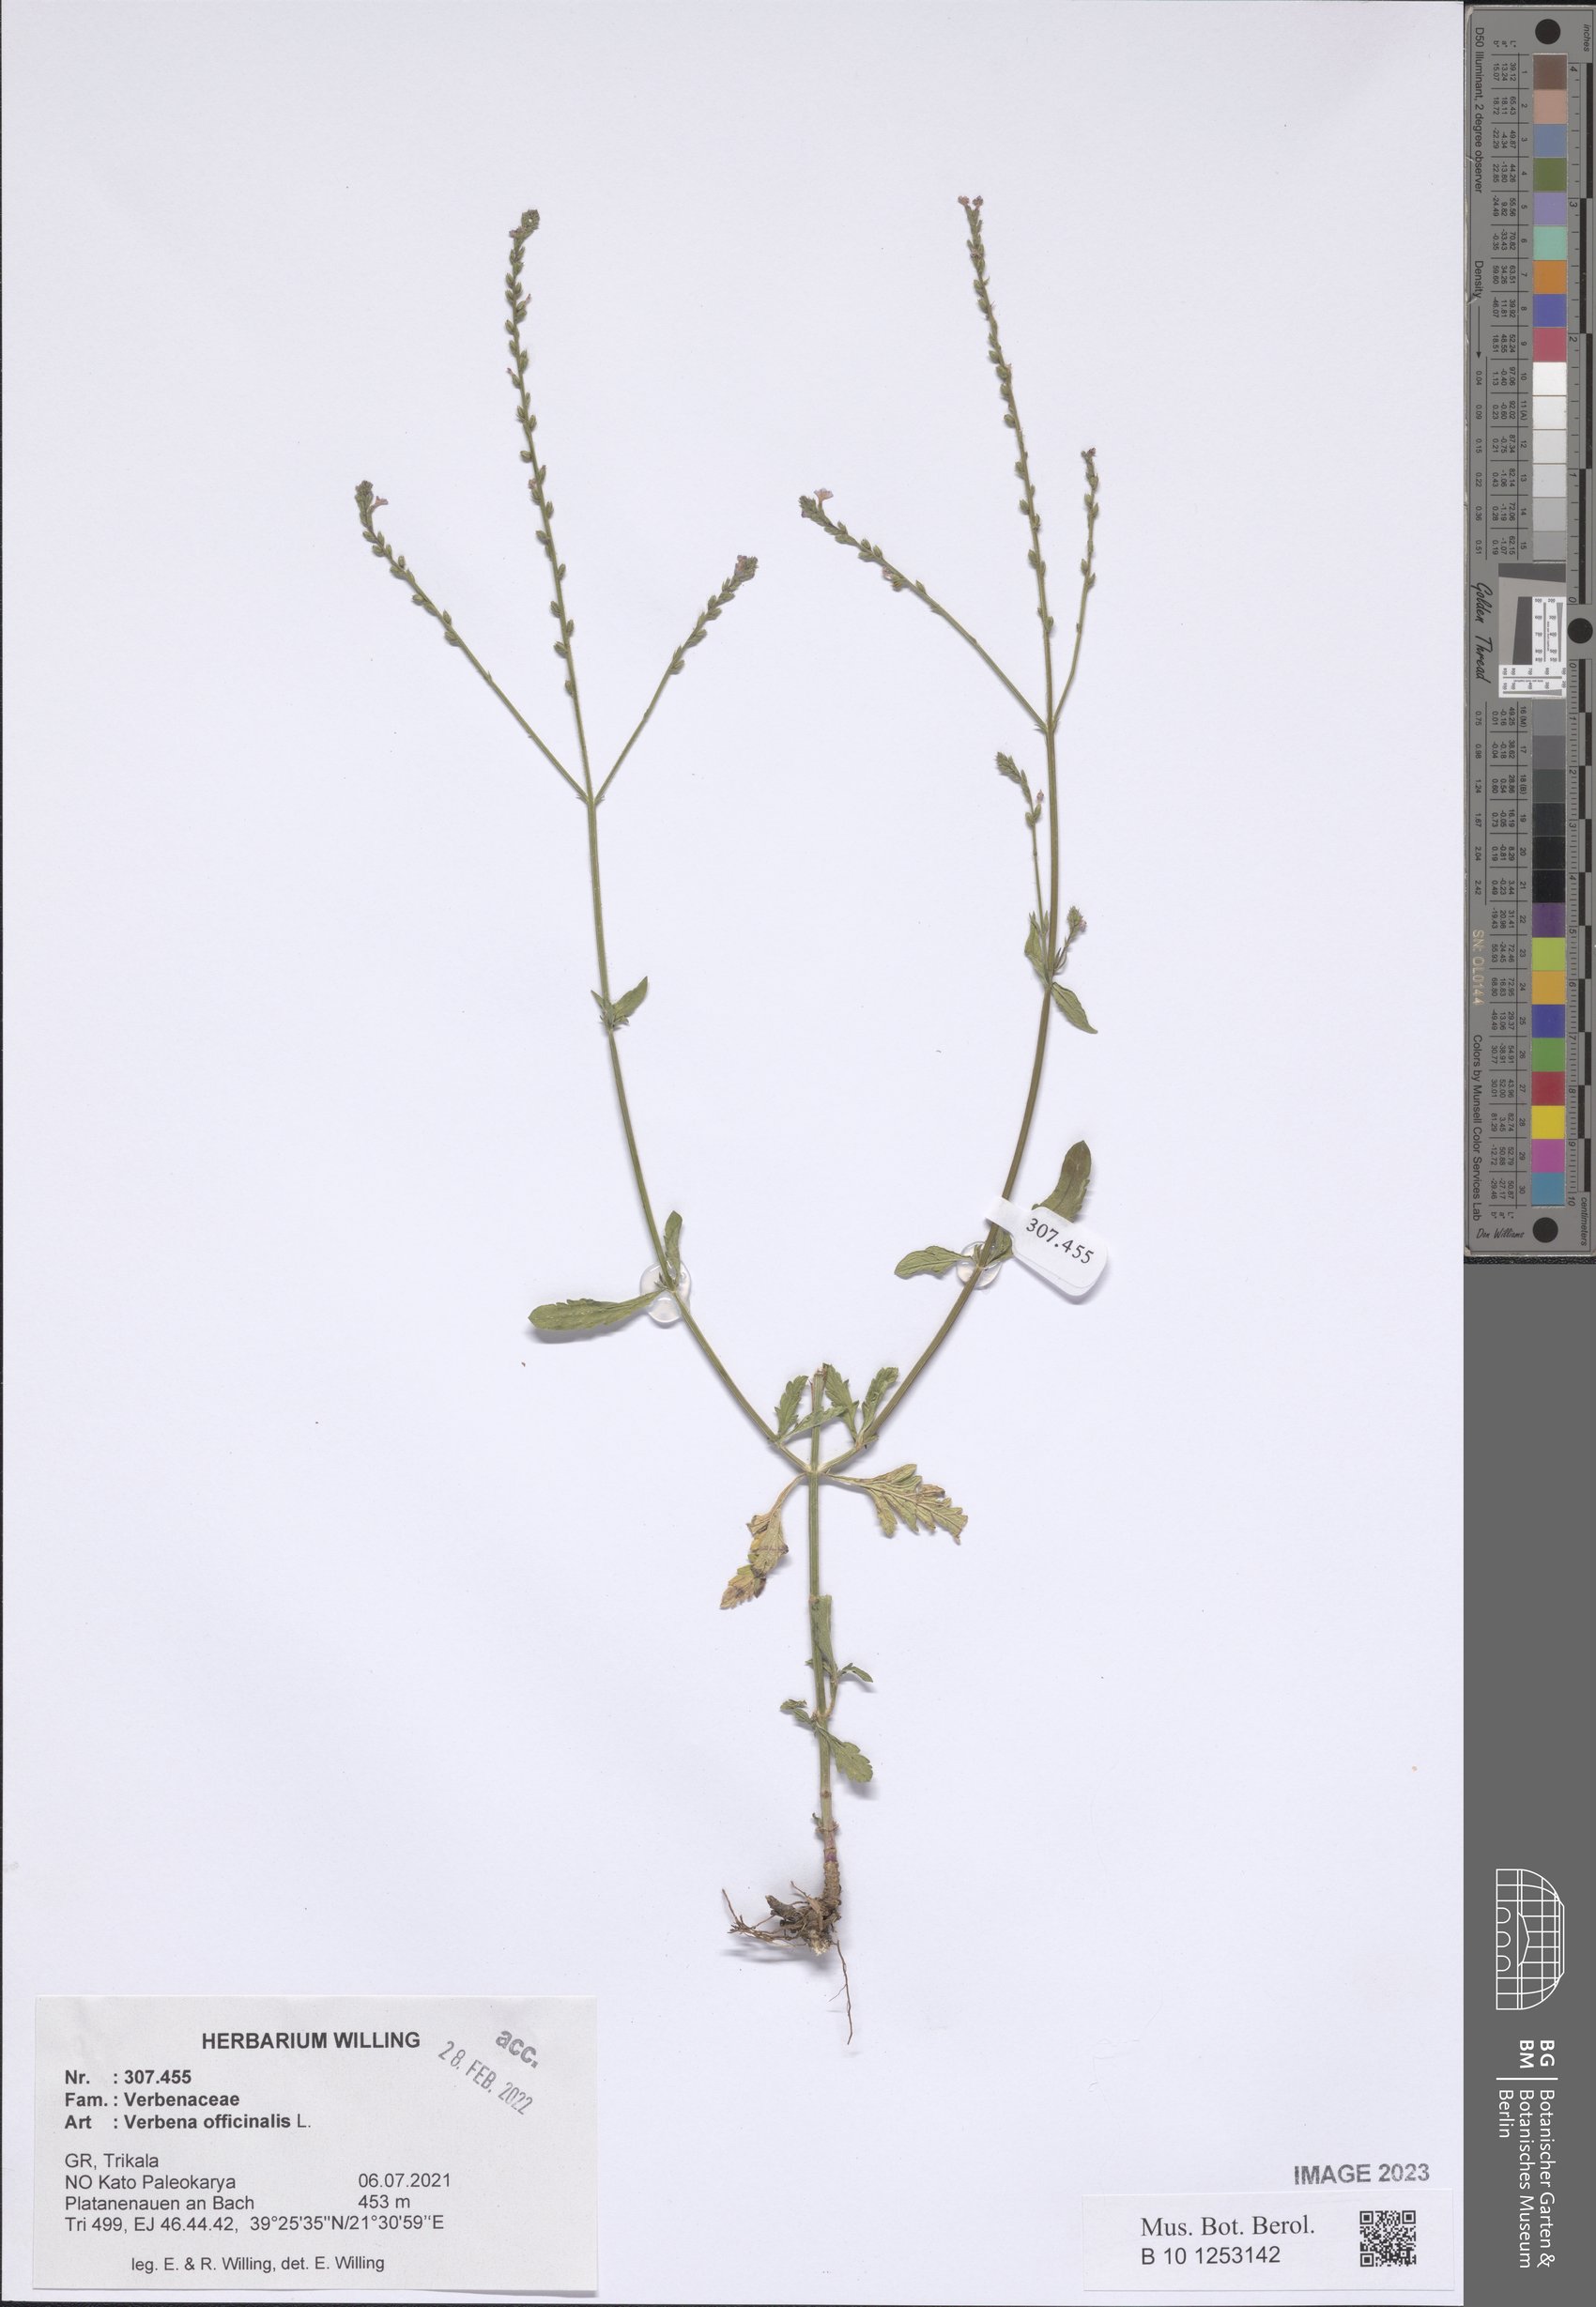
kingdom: Plantae
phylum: Tracheophyta
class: Magnoliopsida
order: Lamiales
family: Verbenaceae
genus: Verbena
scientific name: Verbena officinalis
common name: Vervain
